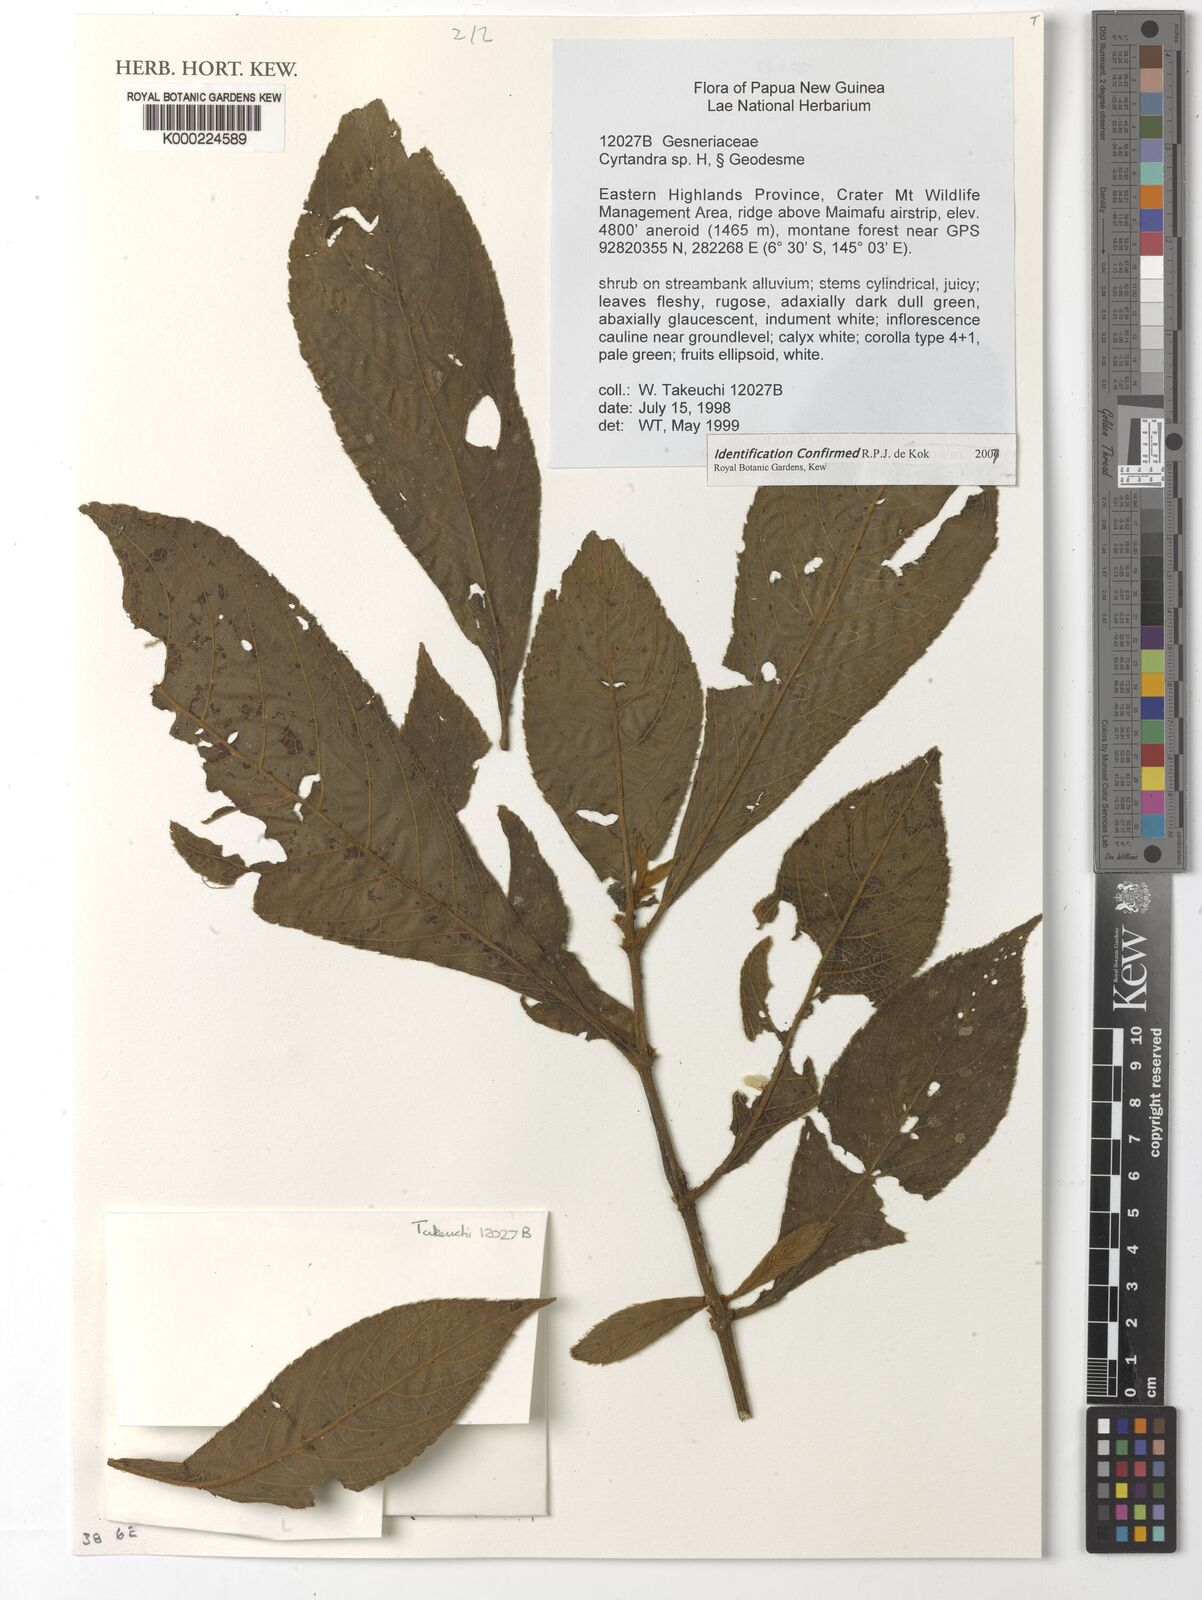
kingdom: Plantae
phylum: Tracheophyta
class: Magnoliopsida
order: Lamiales
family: Gesneriaceae
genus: Cyrtandra
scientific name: Cyrtandra
